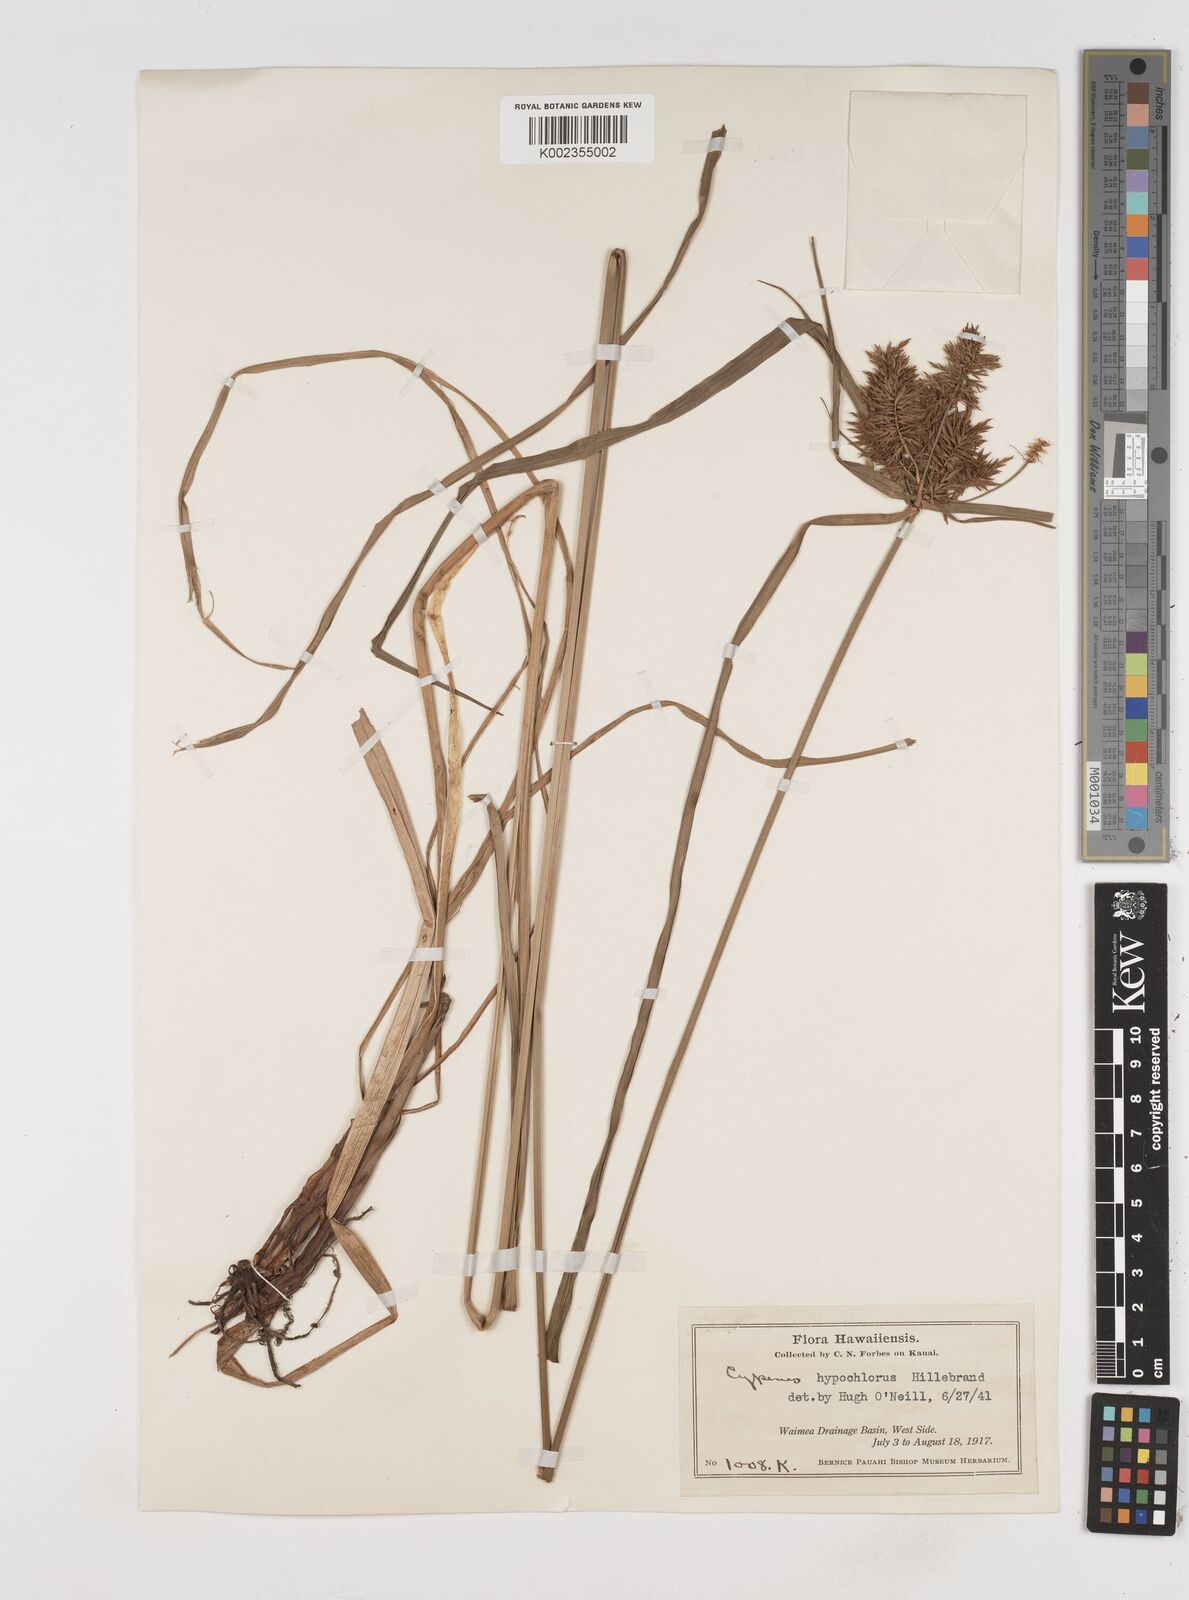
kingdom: Plantae
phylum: Tracheophyta
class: Liliopsida
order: Poales
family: Cyperaceae
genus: Cyperus
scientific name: Cyperus hypochlorus
